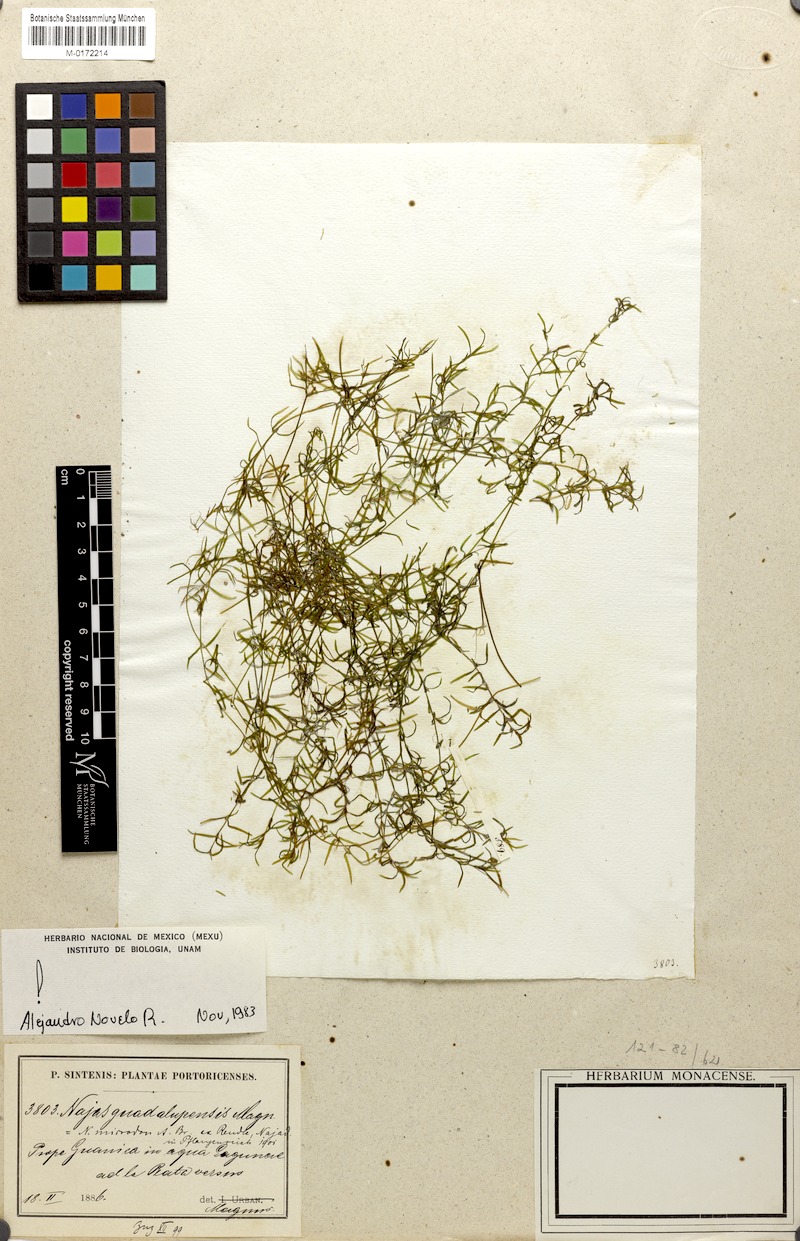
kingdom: Plantae
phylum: Tracheophyta
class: Liliopsida
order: Alismatales
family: Hydrocharitaceae
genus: Najas
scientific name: Najas guadalupensis
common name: Southern naiad
